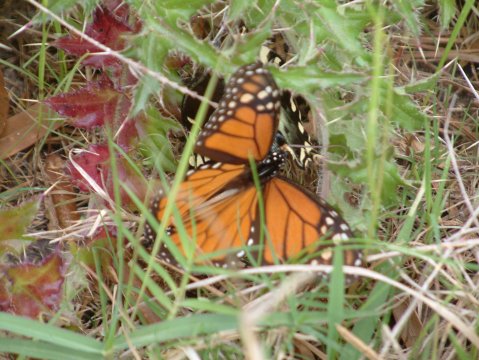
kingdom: Animalia
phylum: Arthropoda
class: Insecta
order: Lepidoptera
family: Nymphalidae
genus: Danaus
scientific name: Danaus plexippus
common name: Monarch
